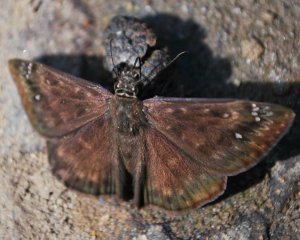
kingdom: Animalia
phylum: Arthropoda
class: Insecta
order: Lepidoptera
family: Hesperiidae
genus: Gesta
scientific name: Gesta
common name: Horace's Duskywing
